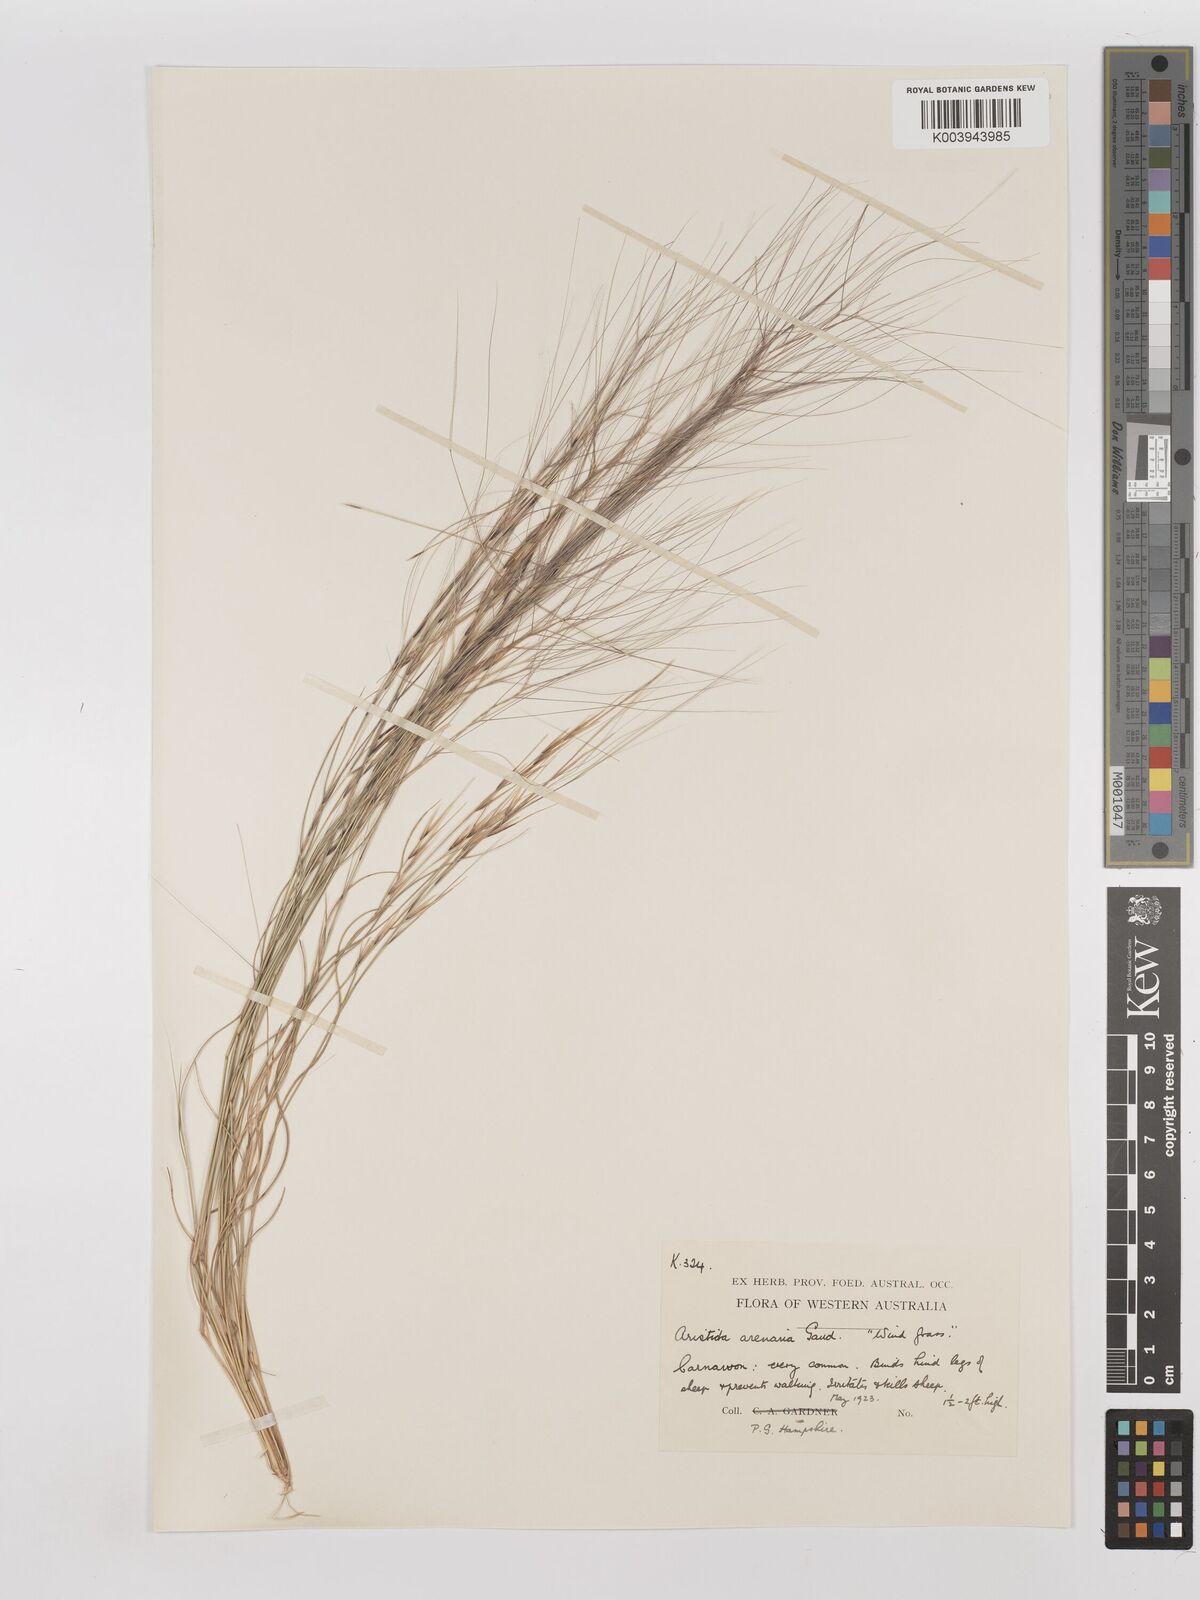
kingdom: Plantae
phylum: Tracheophyta
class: Liliopsida
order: Poales
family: Poaceae
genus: Aristida
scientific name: Aristida contorta
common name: Bunch kerosene grass
